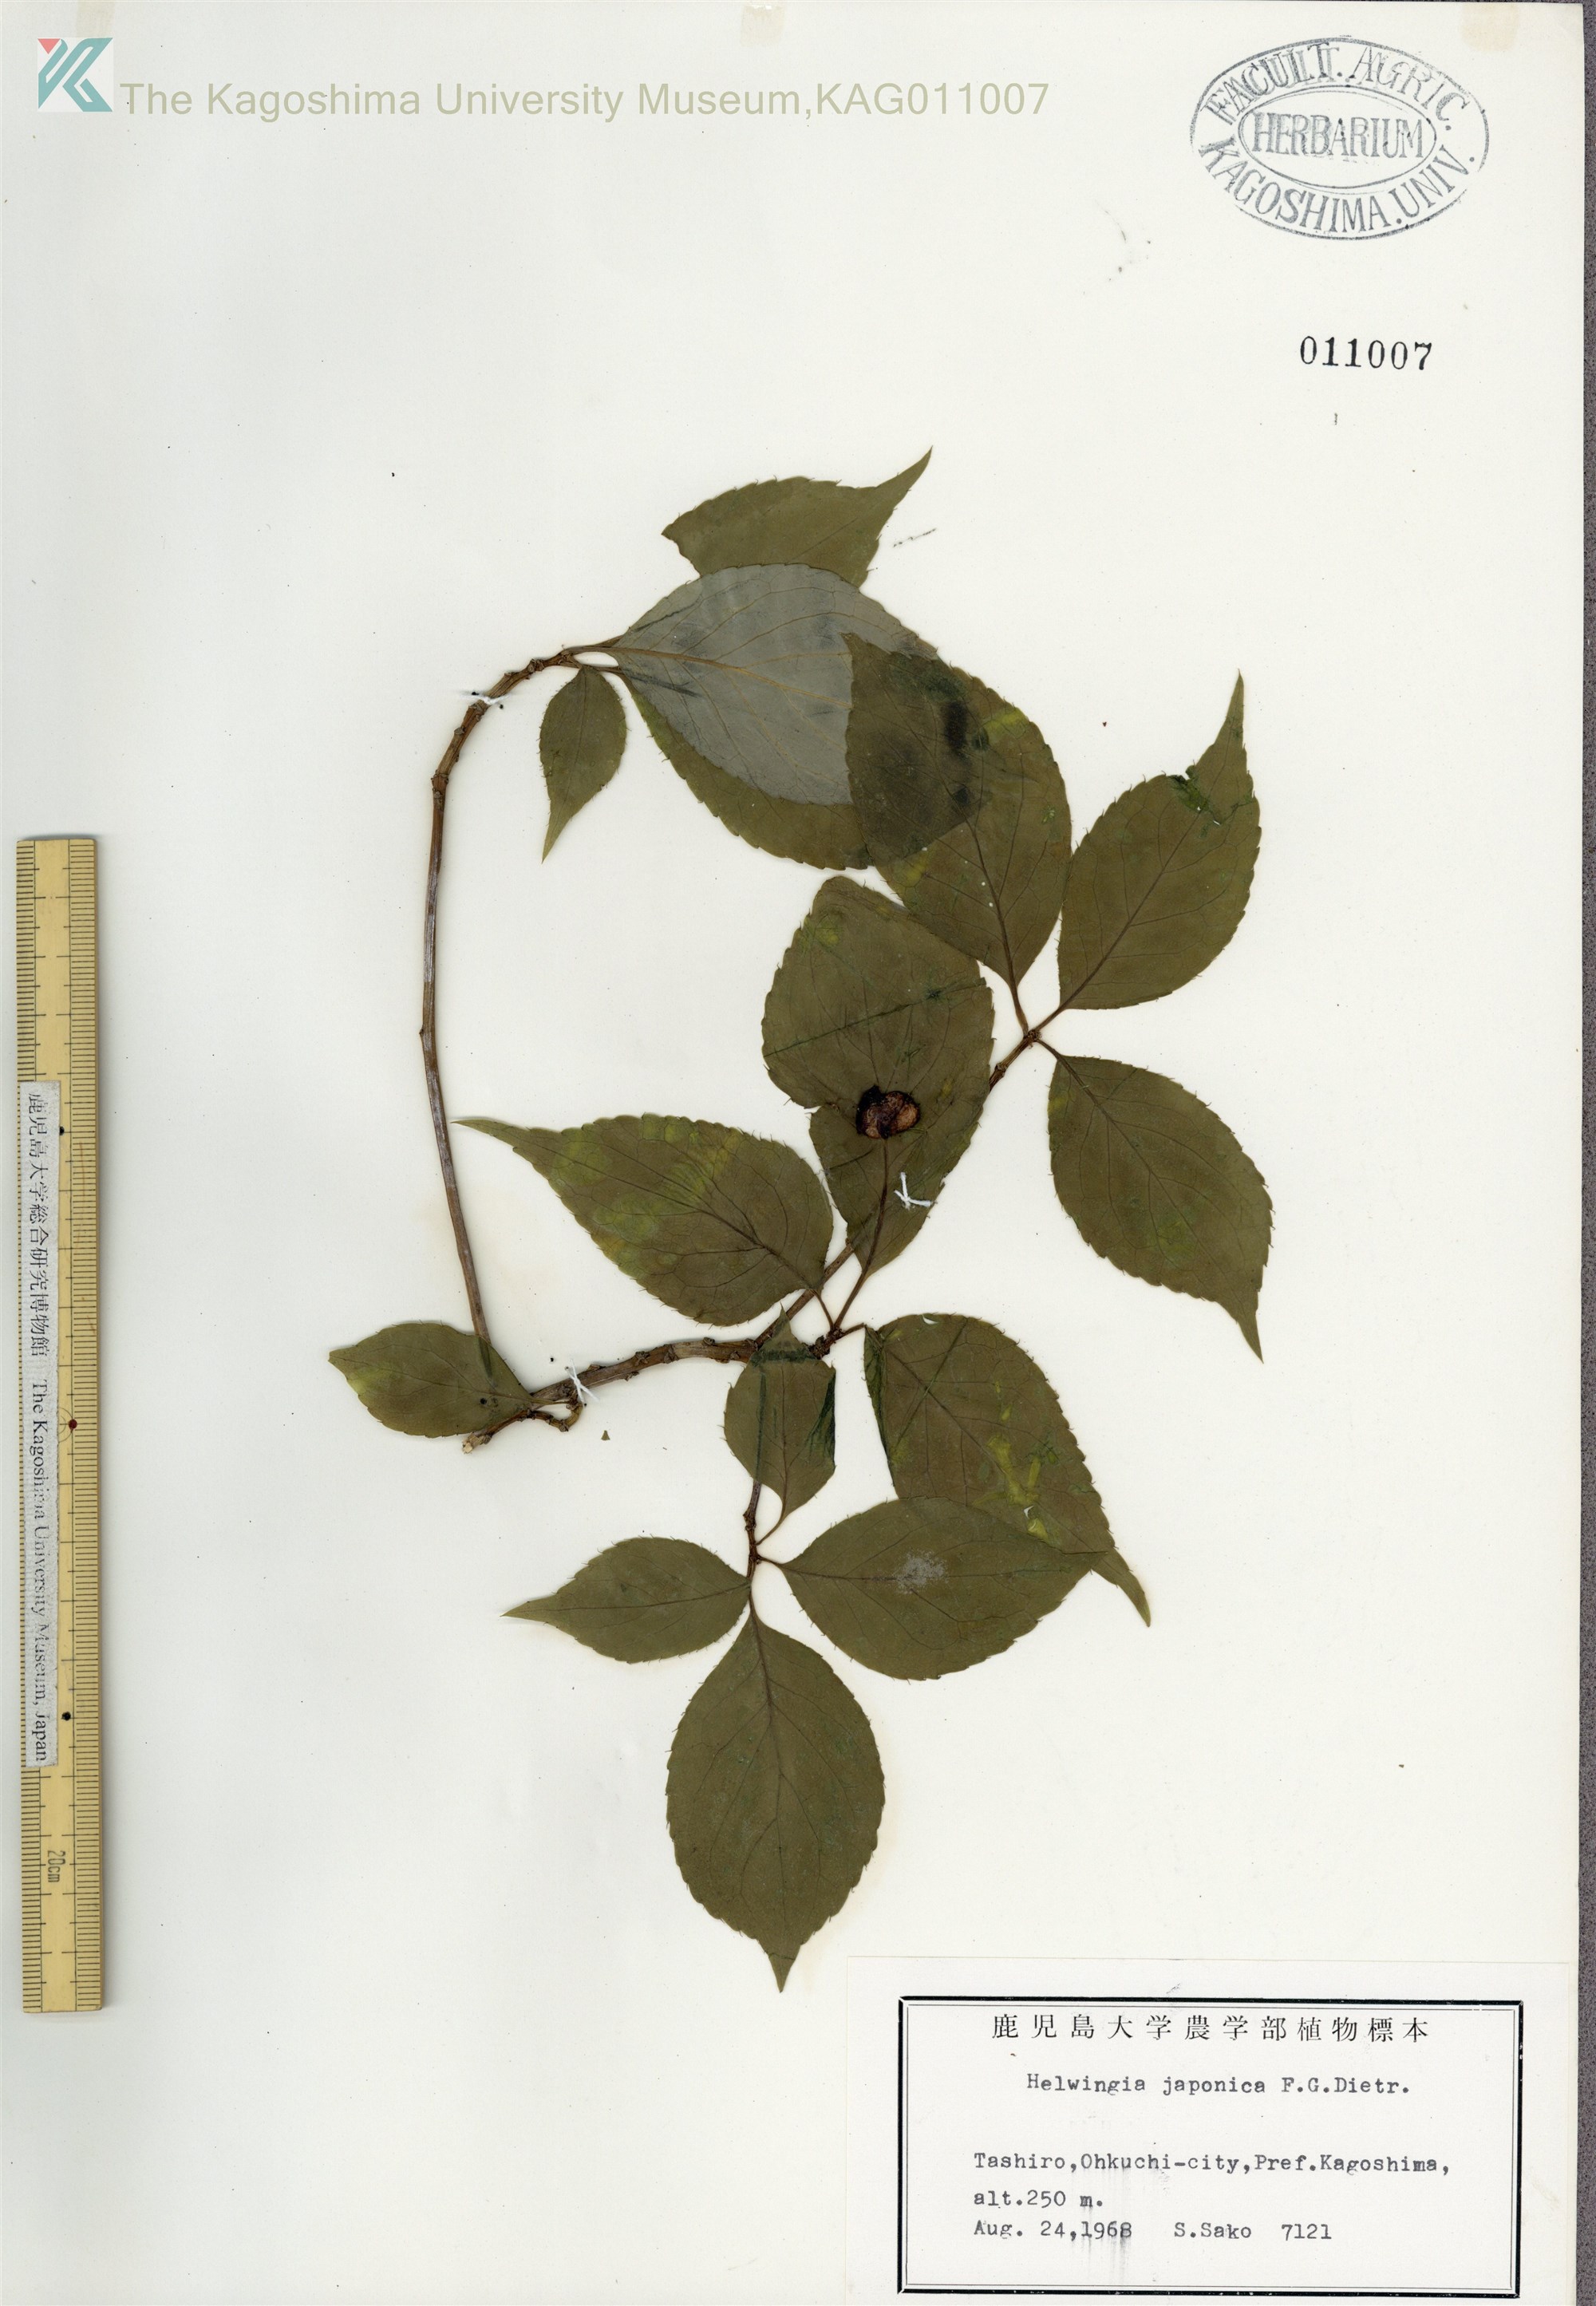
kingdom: Plantae
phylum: Tracheophyta
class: Magnoliopsida
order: Aquifoliales
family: Helwingiaceae
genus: Helwingia
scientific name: Helwingia japonica
